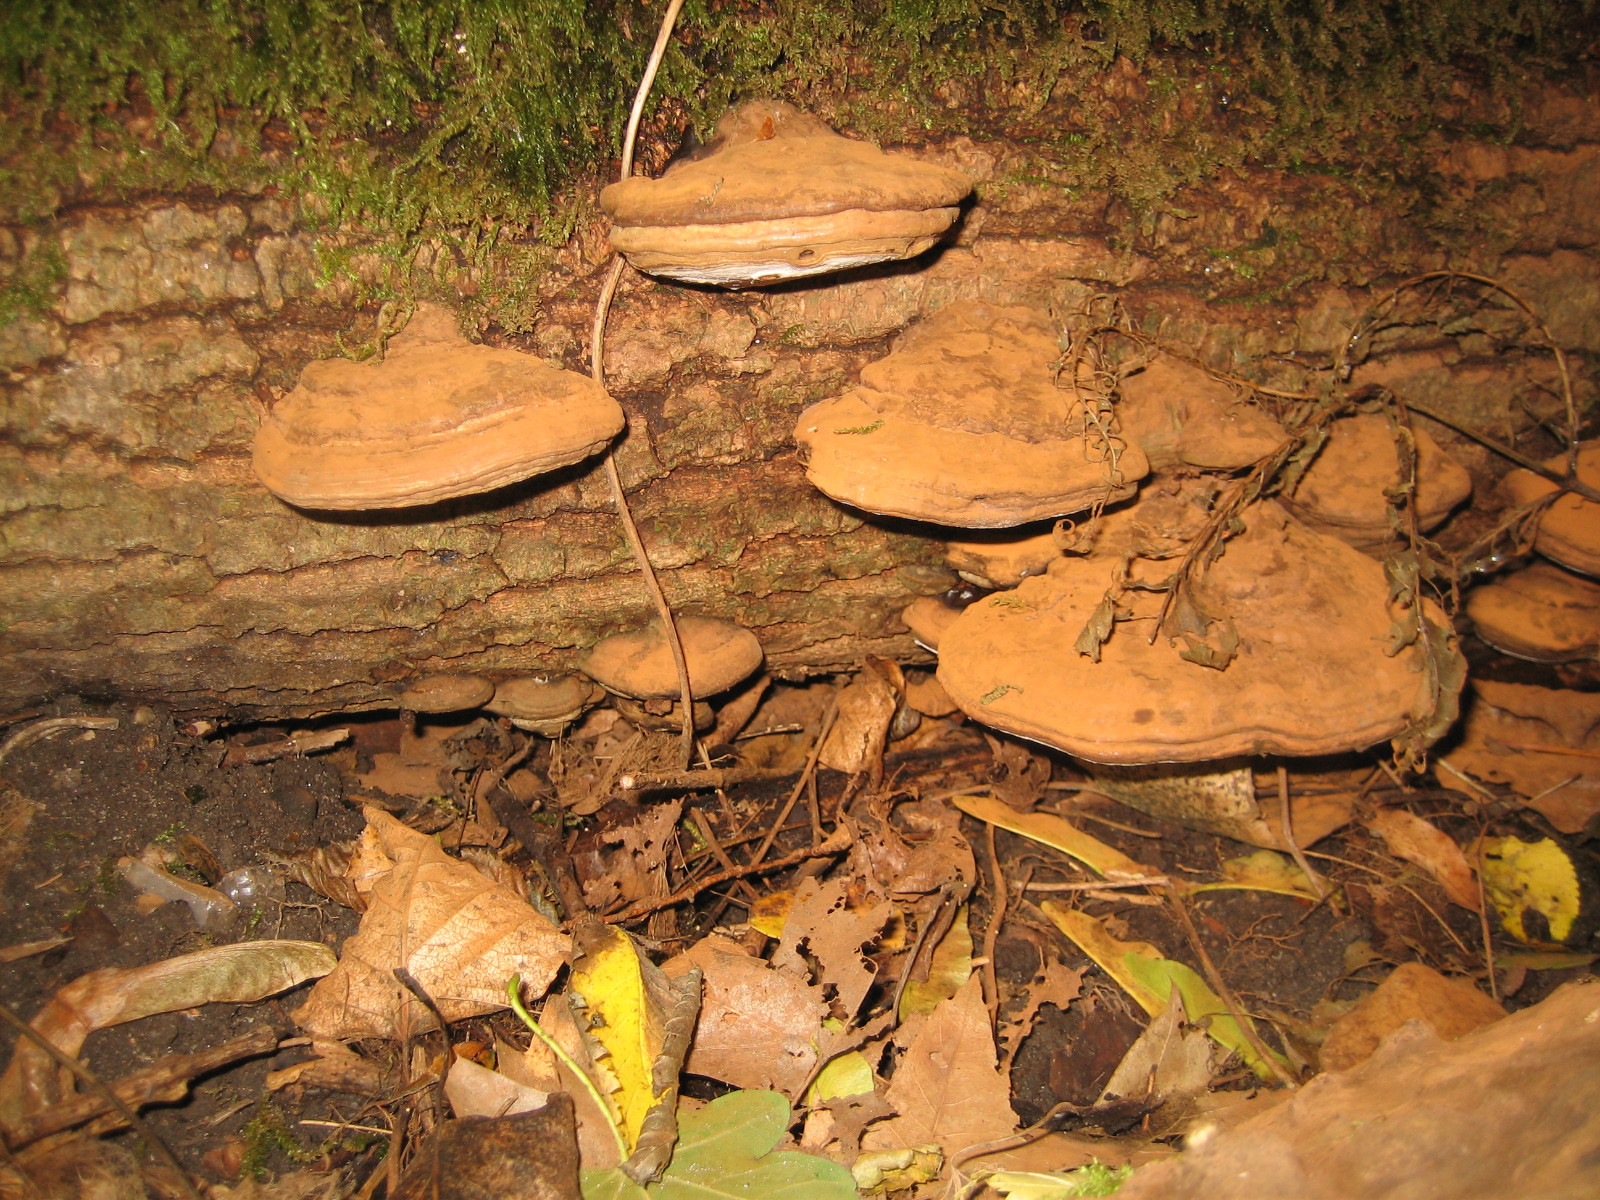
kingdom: Fungi
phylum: Basidiomycota
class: Agaricomycetes
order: Polyporales
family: Polyporaceae
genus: Ganoderma
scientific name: Ganoderma applanatum
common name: flad lakporesvamp
